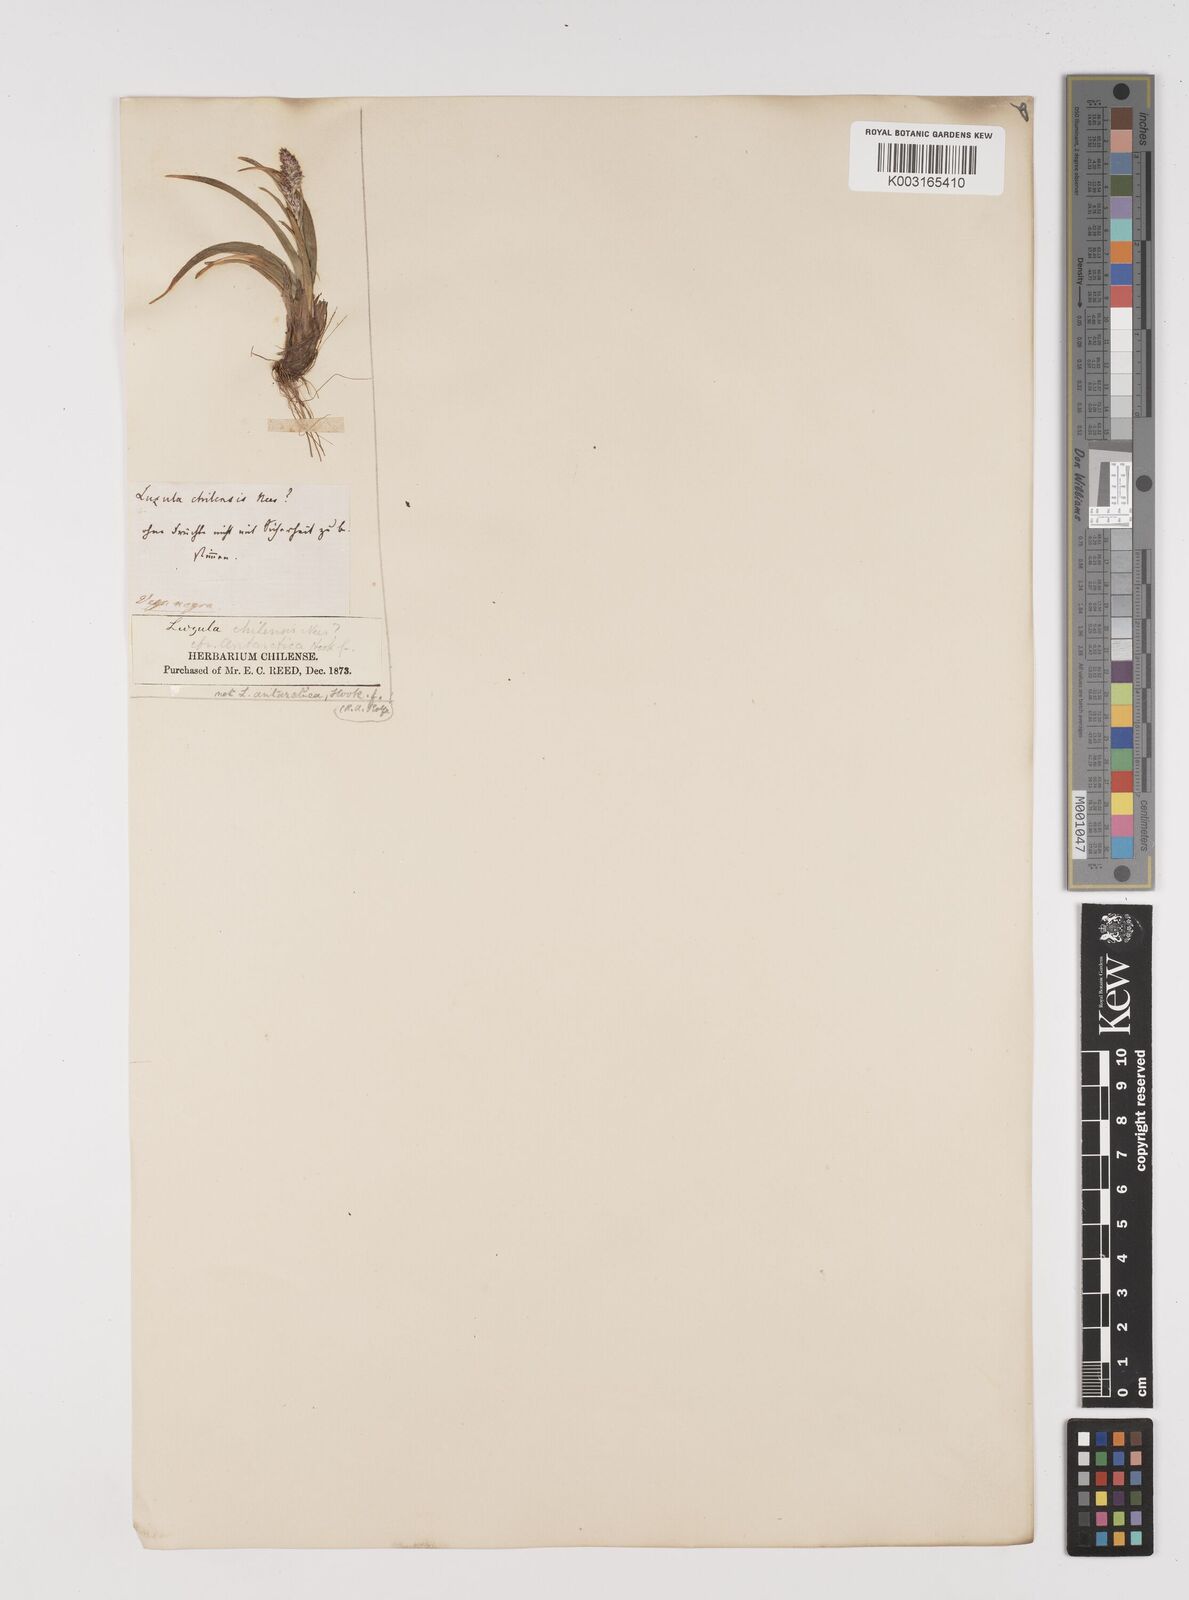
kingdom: Plantae
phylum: Tracheophyta
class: Liliopsida
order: Poales
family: Juncaceae
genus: Luzula
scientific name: Luzula chilensis
